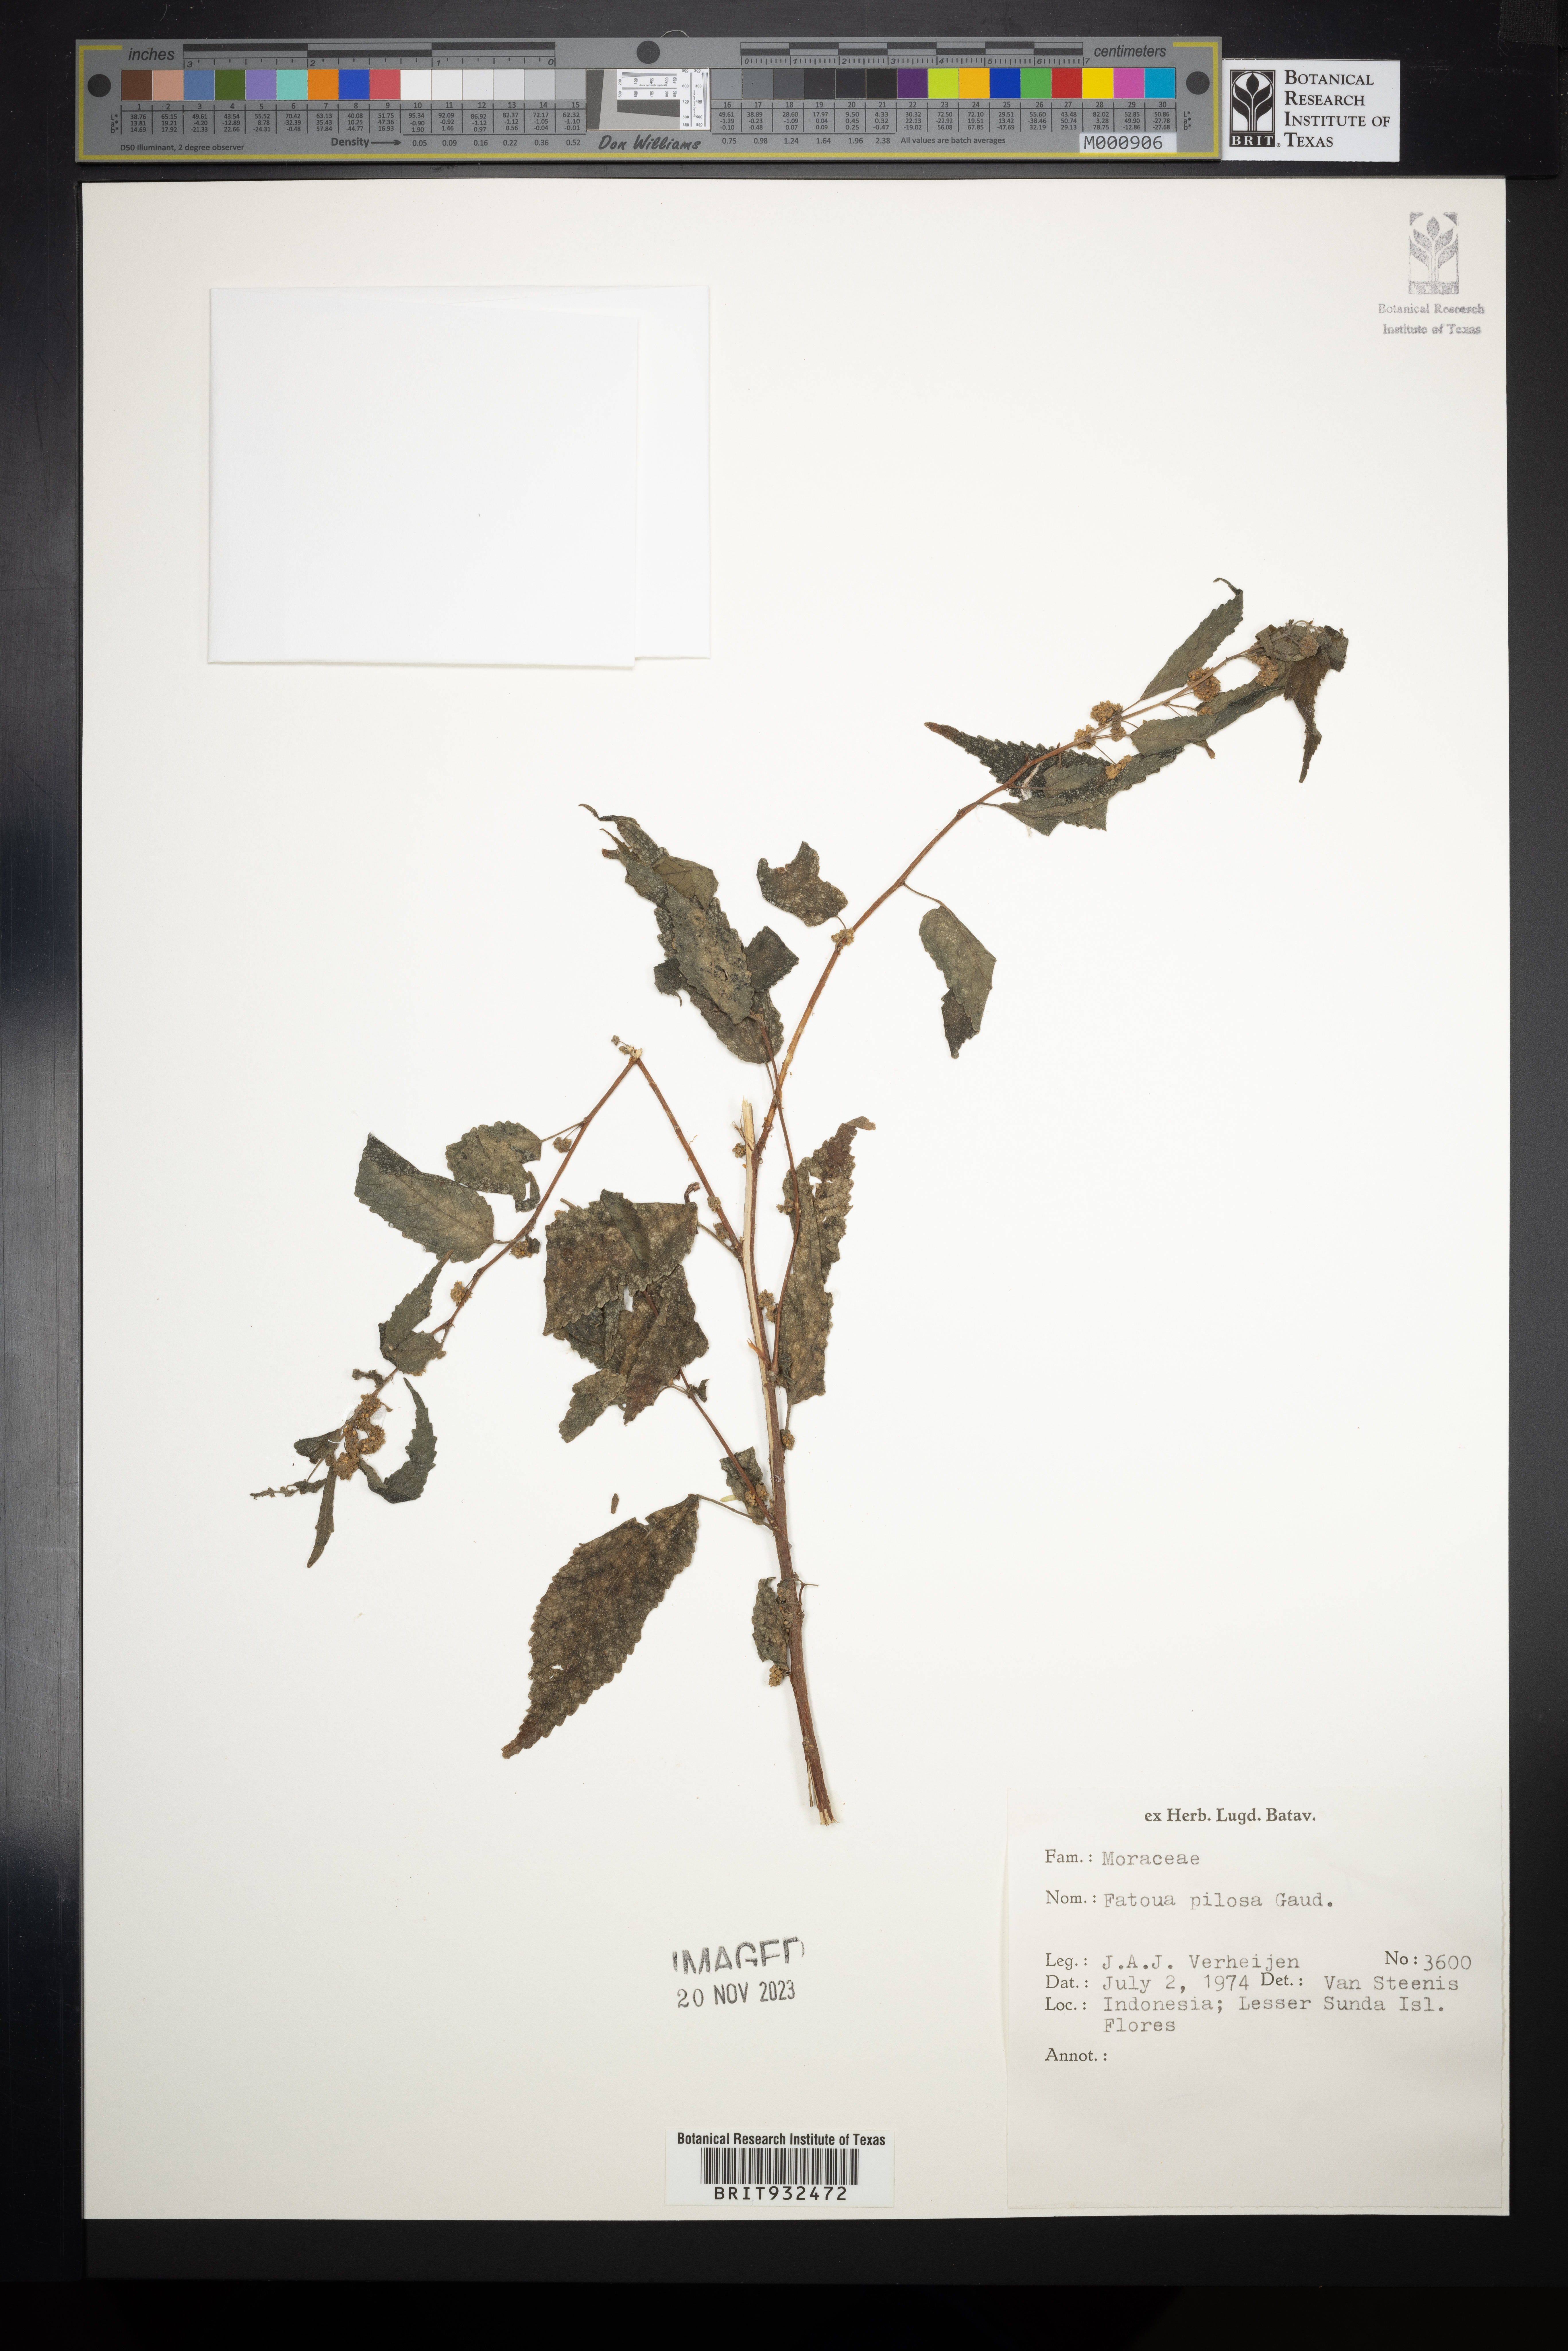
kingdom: Plantae
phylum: Tracheophyta
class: Magnoliopsida
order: Rosales
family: Moraceae
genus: Fatoua
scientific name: Fatoua
